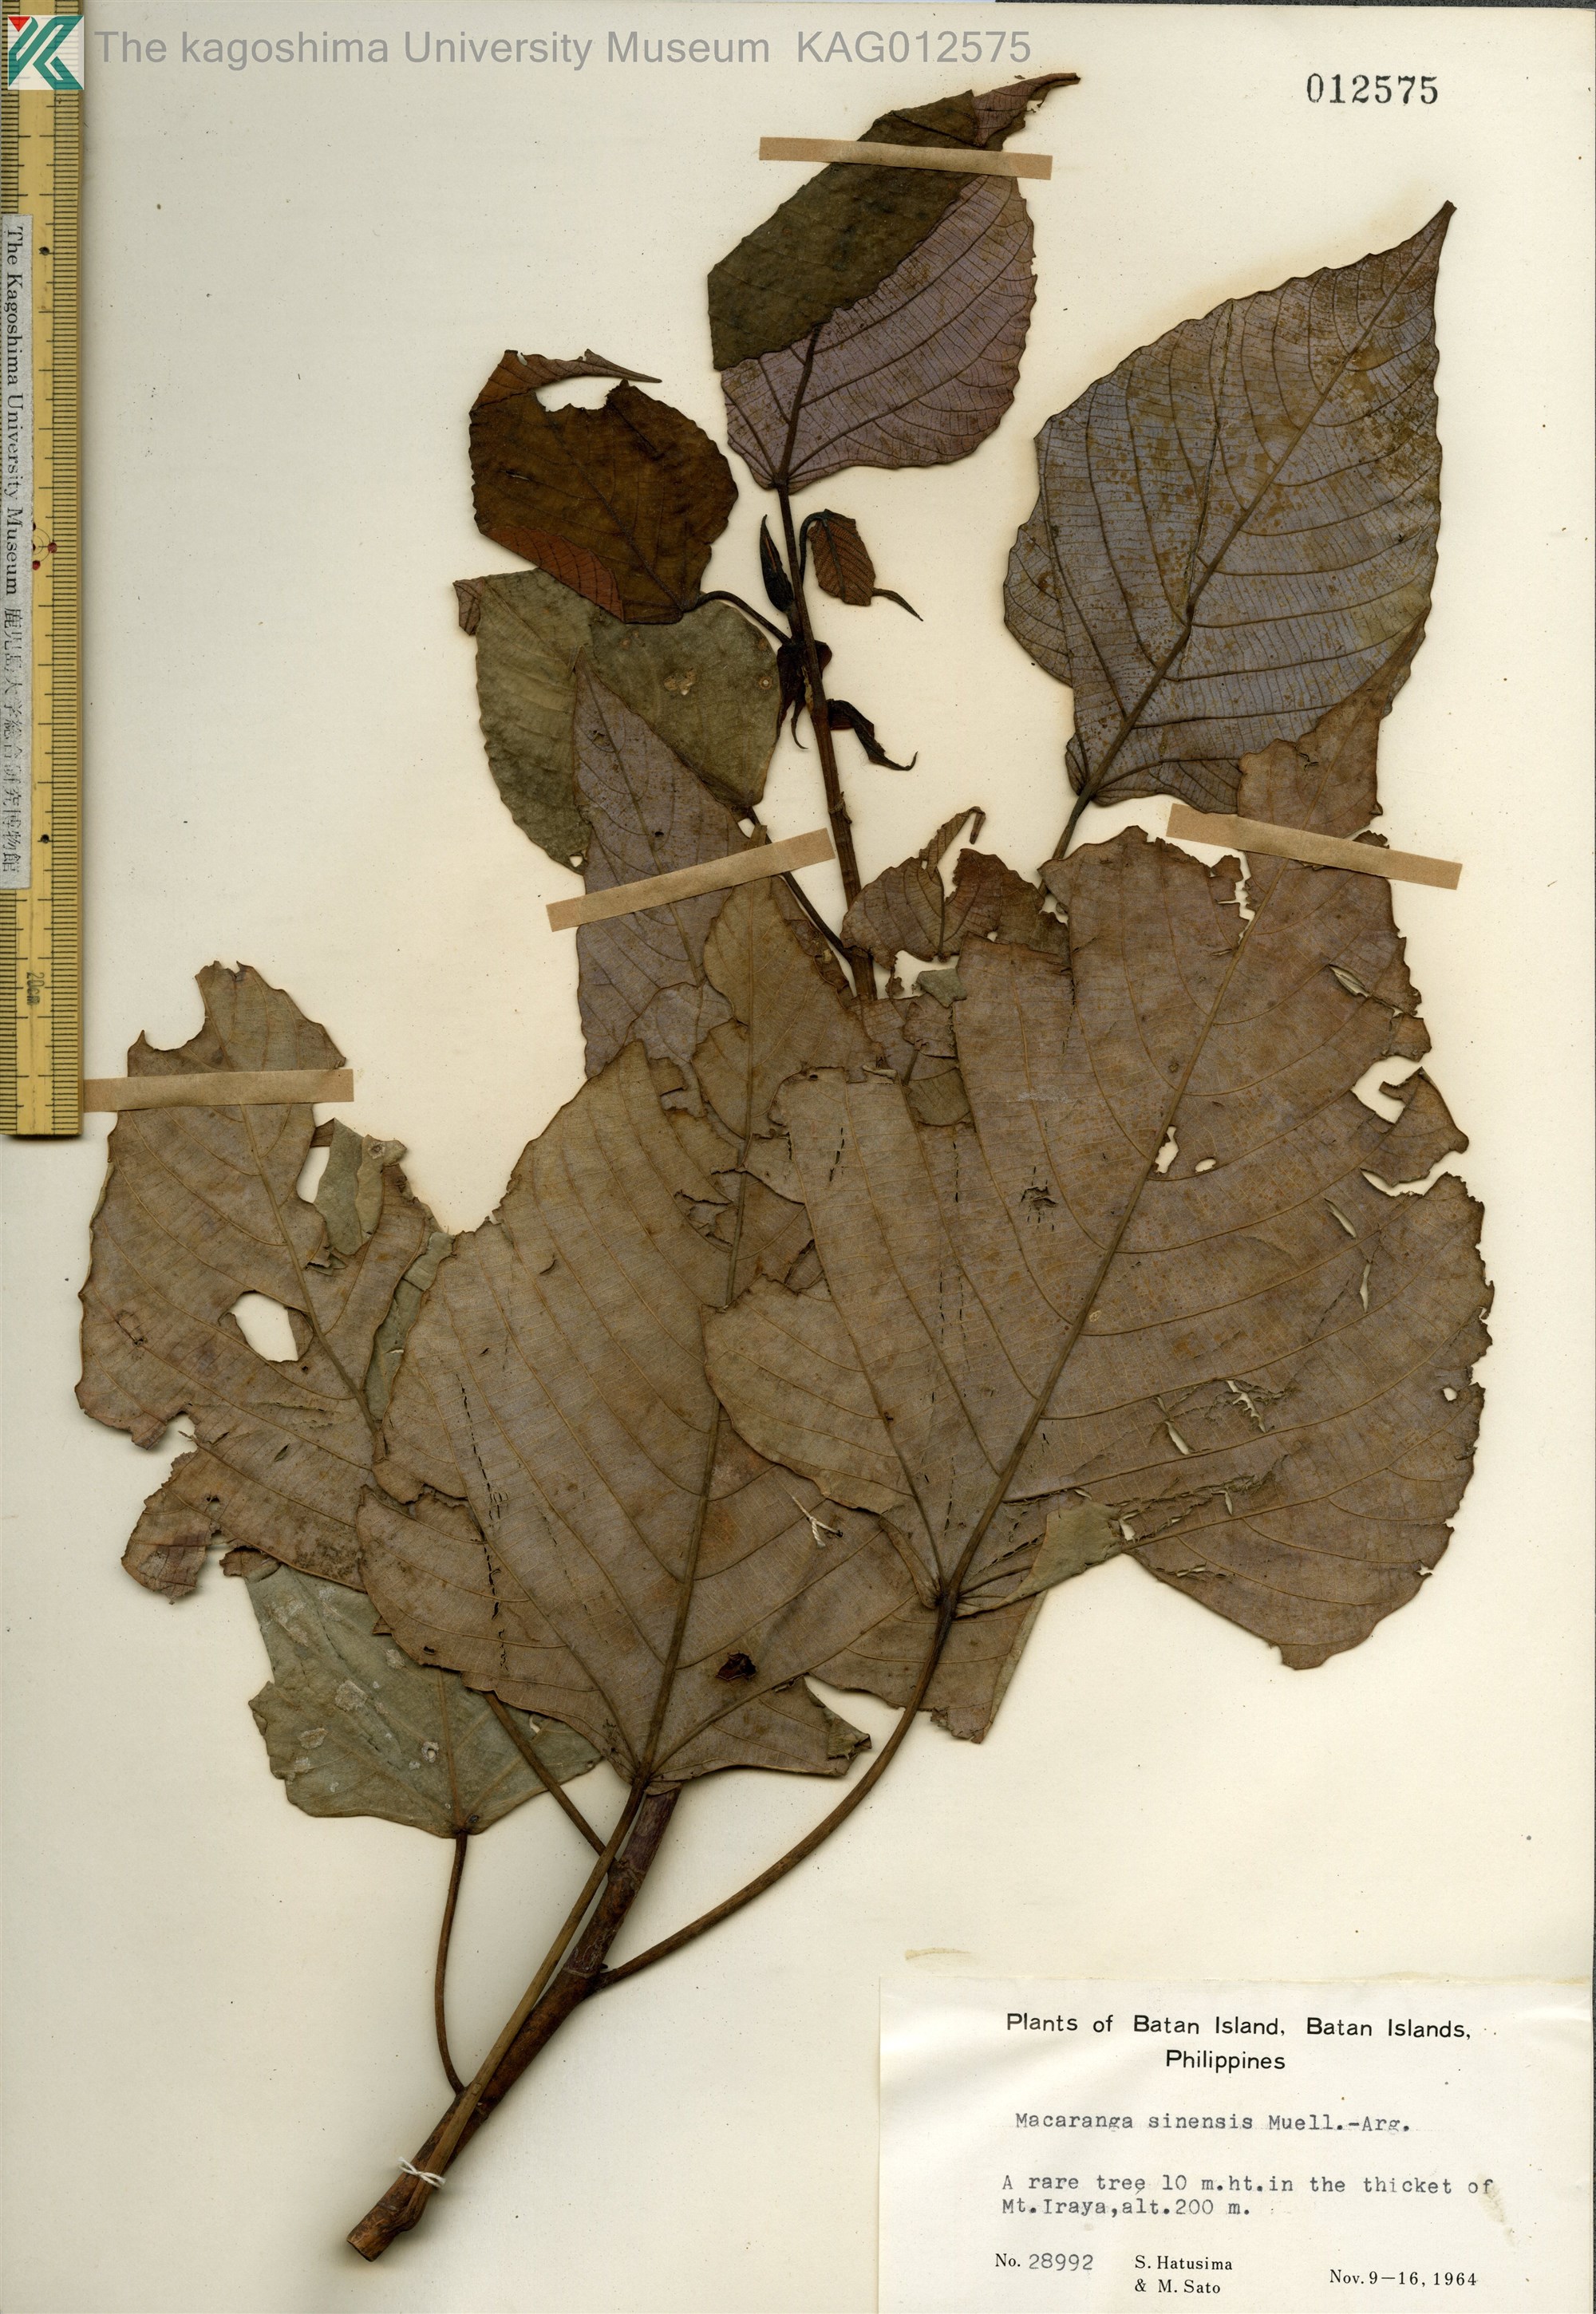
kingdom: Plantae
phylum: Tracheophyta
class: Magnoliopsida
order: Malpighiales
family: Euphorbiaceae
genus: Macaranga
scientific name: Macaranga sinensis
